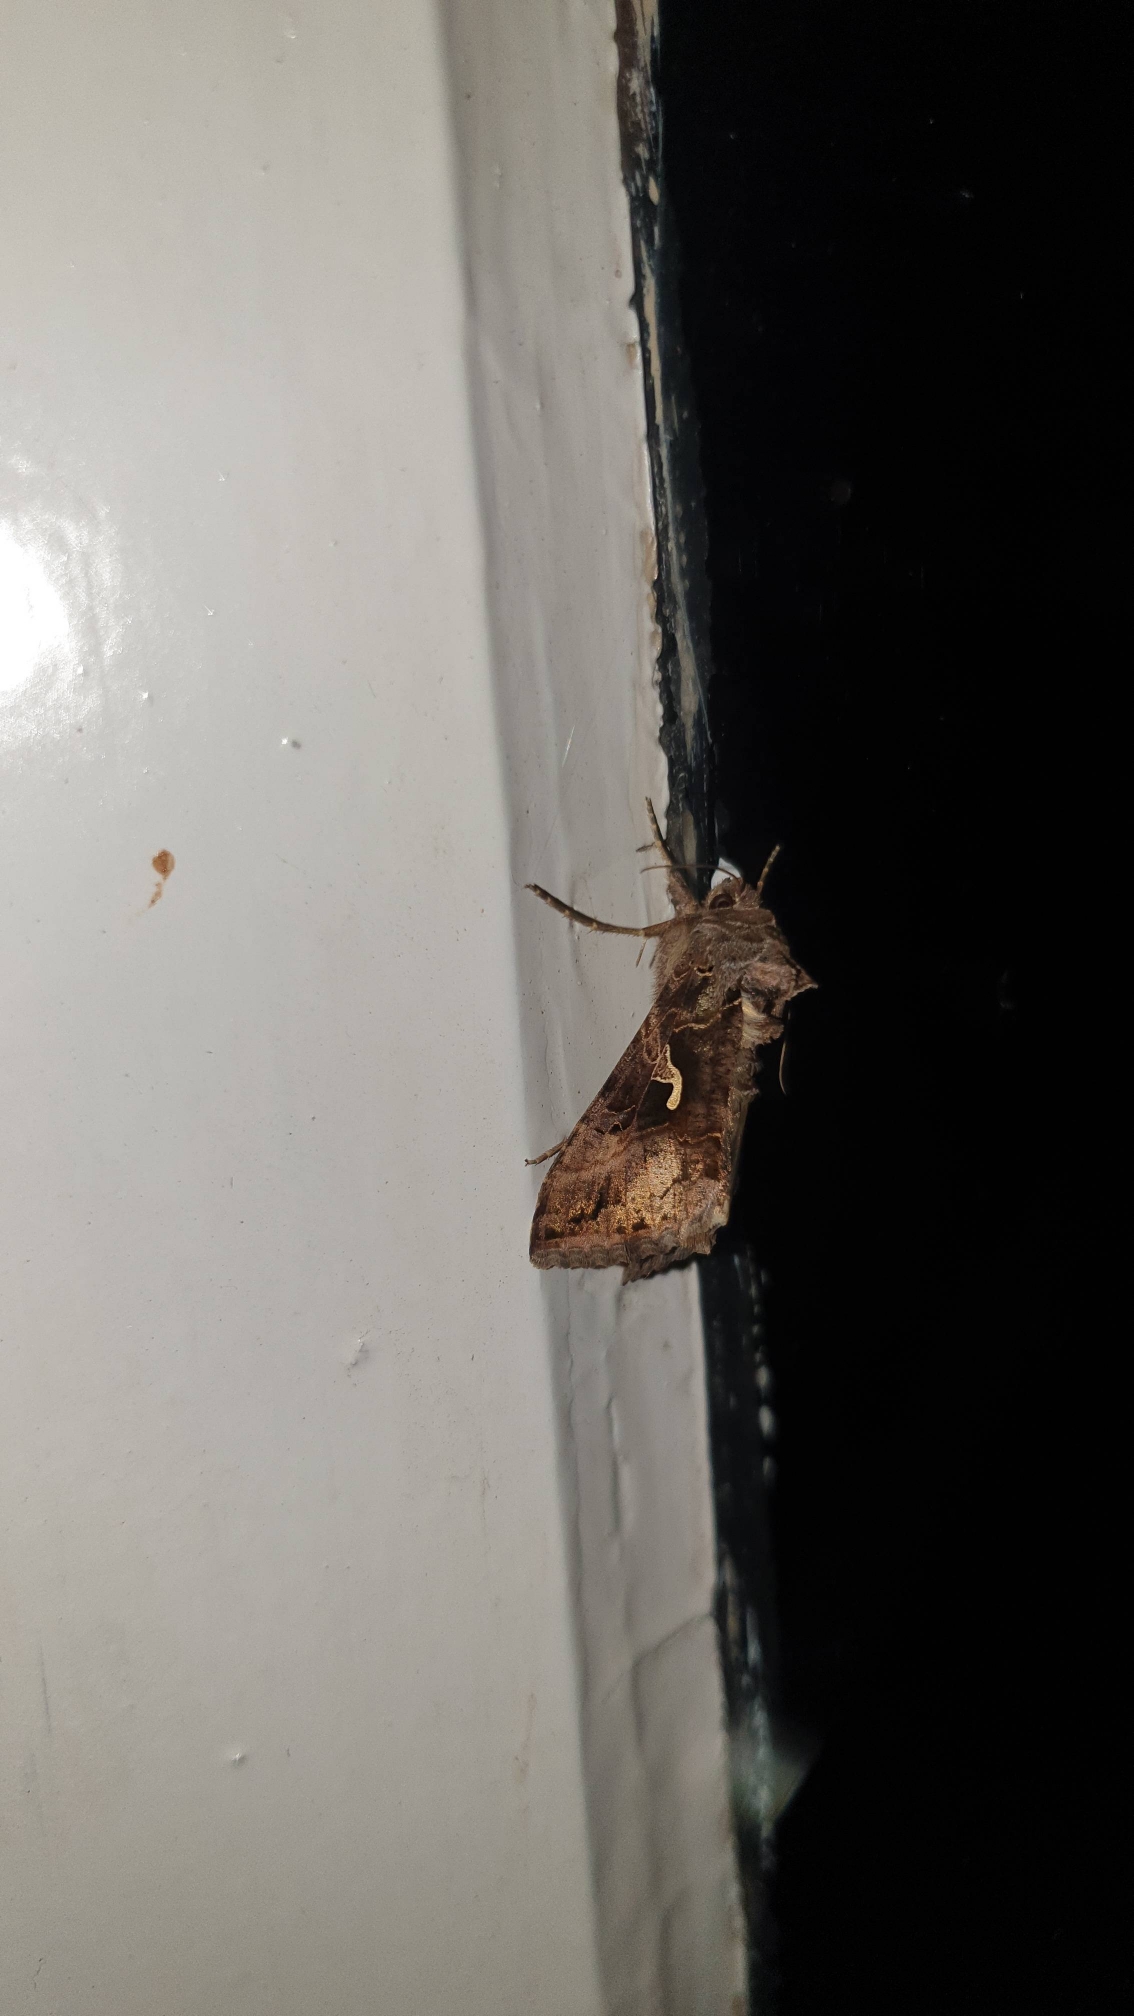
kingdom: Animalia
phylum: Arthropoda
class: Insecta
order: Lepidoptera
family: Noctuidae
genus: Autographa
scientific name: Autographa gamma
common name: Gammaugle
